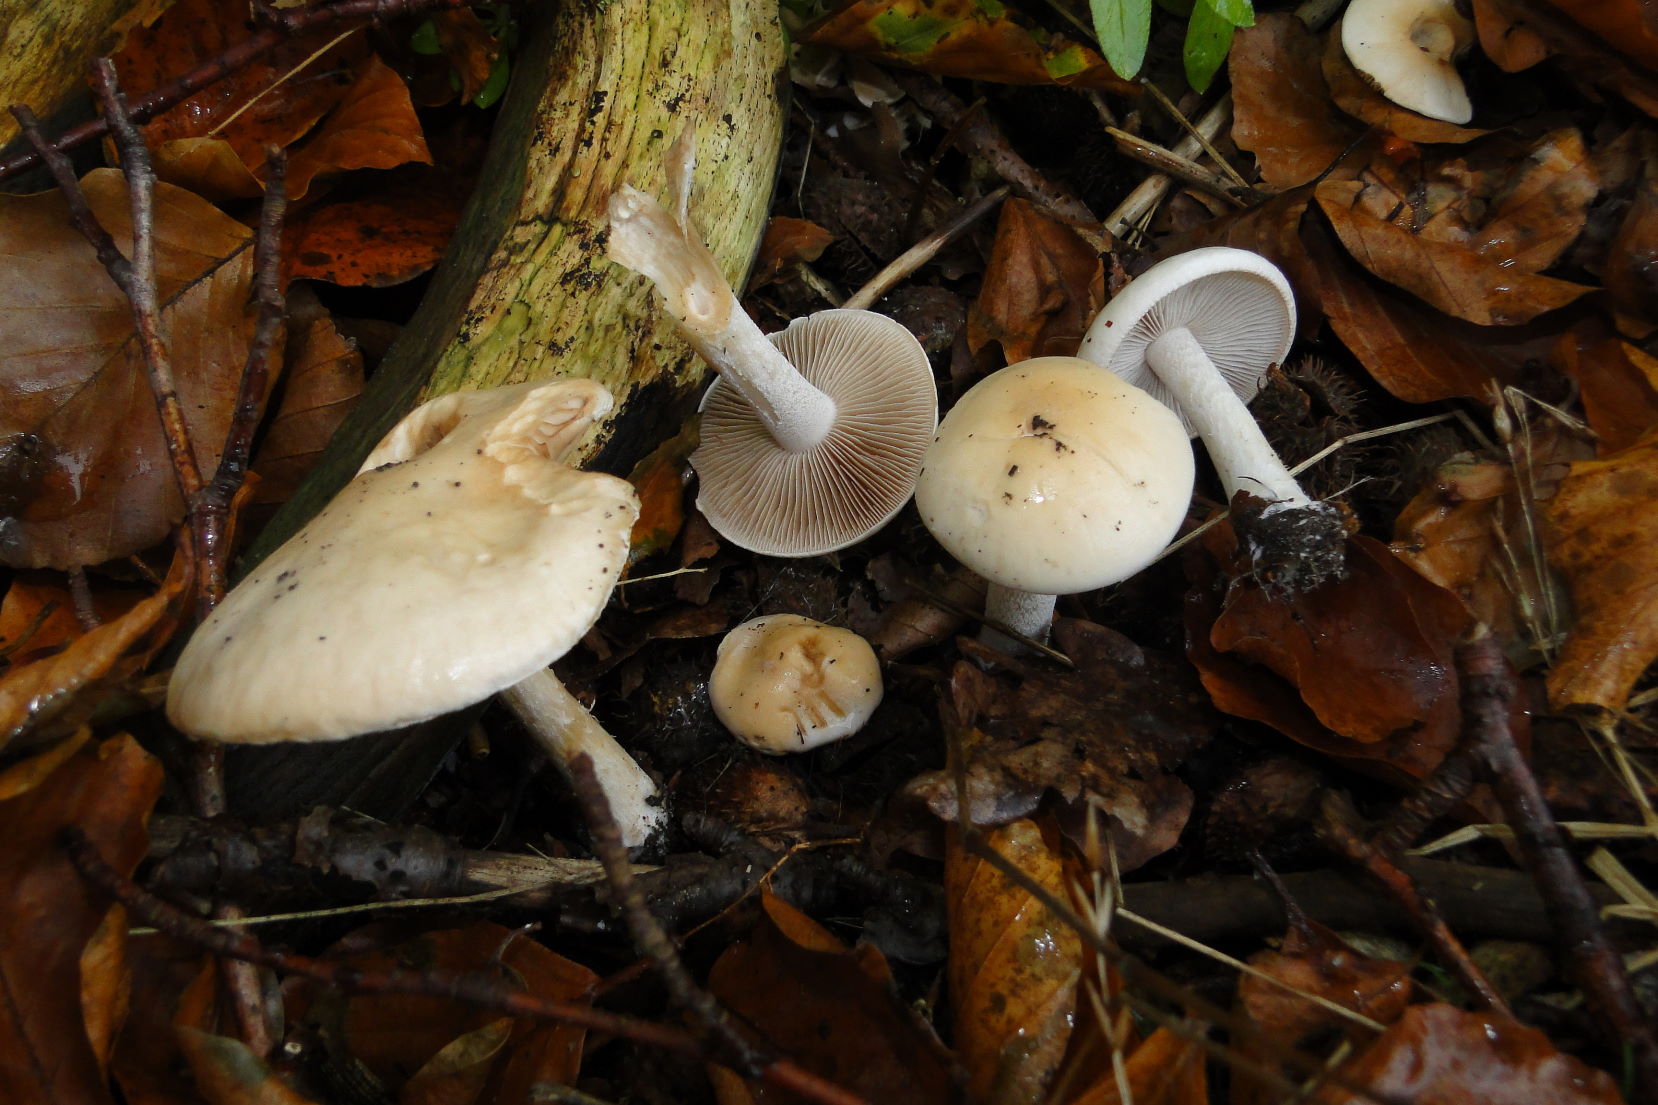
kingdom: Fungi
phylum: Basidiomycota
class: Agaricomycetes
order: Agaricales
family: Hymenogastraceae
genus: Hebeloma
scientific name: Hebeloma leucosarx
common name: højstokket tåreblad
